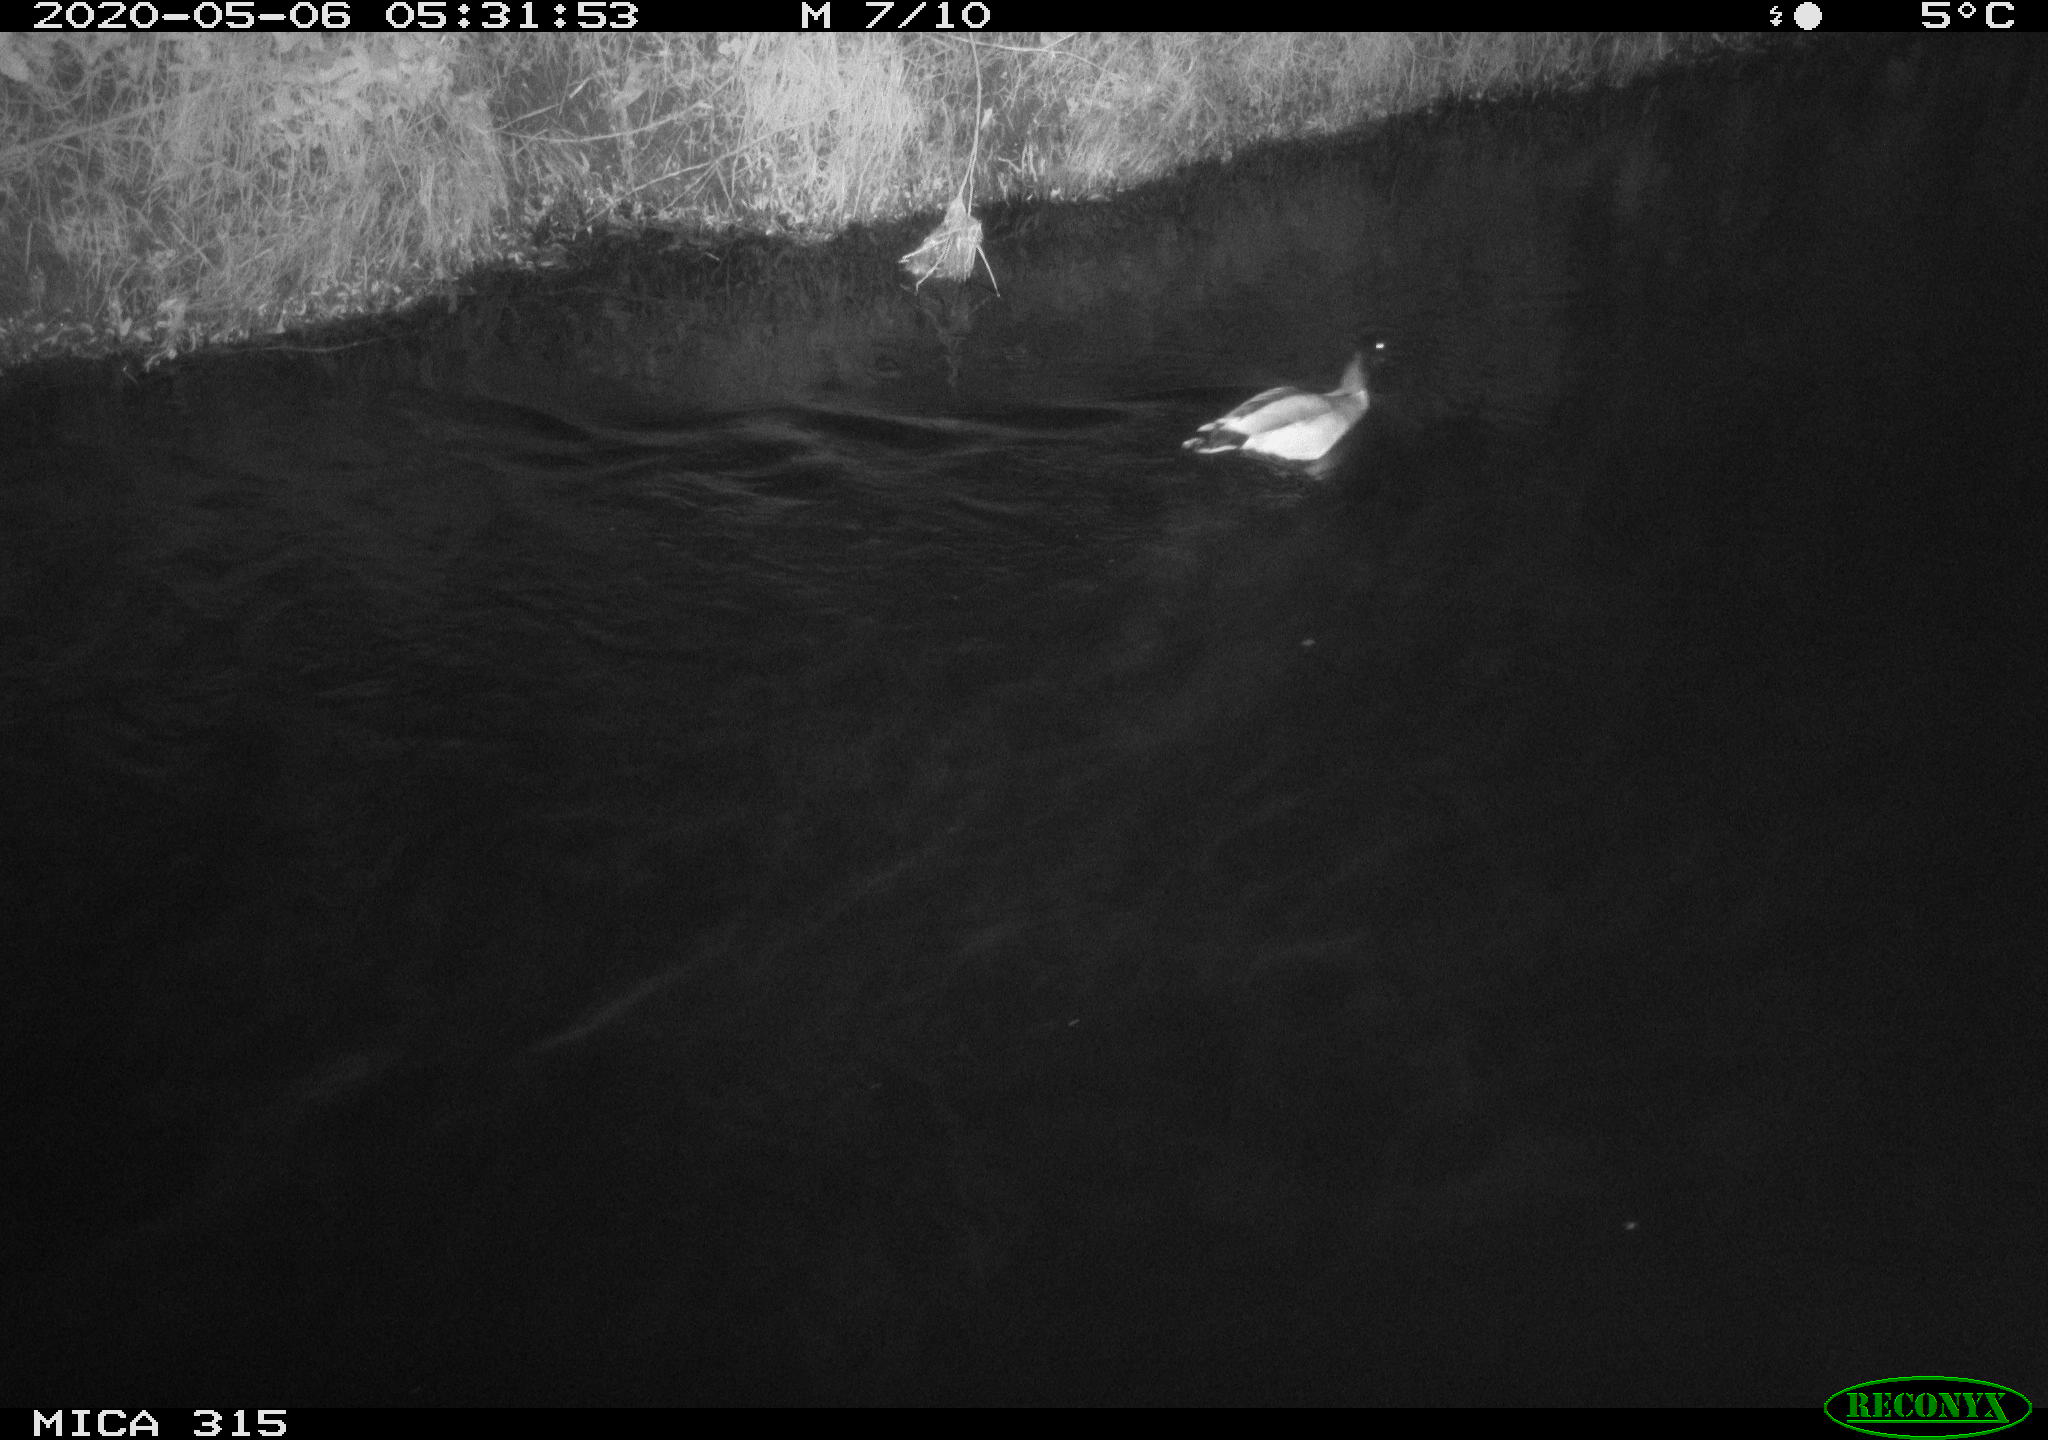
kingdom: Animalia
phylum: Chordata
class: Aves
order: Anseriformes
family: Anatidae
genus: Anas
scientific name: Anas platyrhynchos
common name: Mallard
